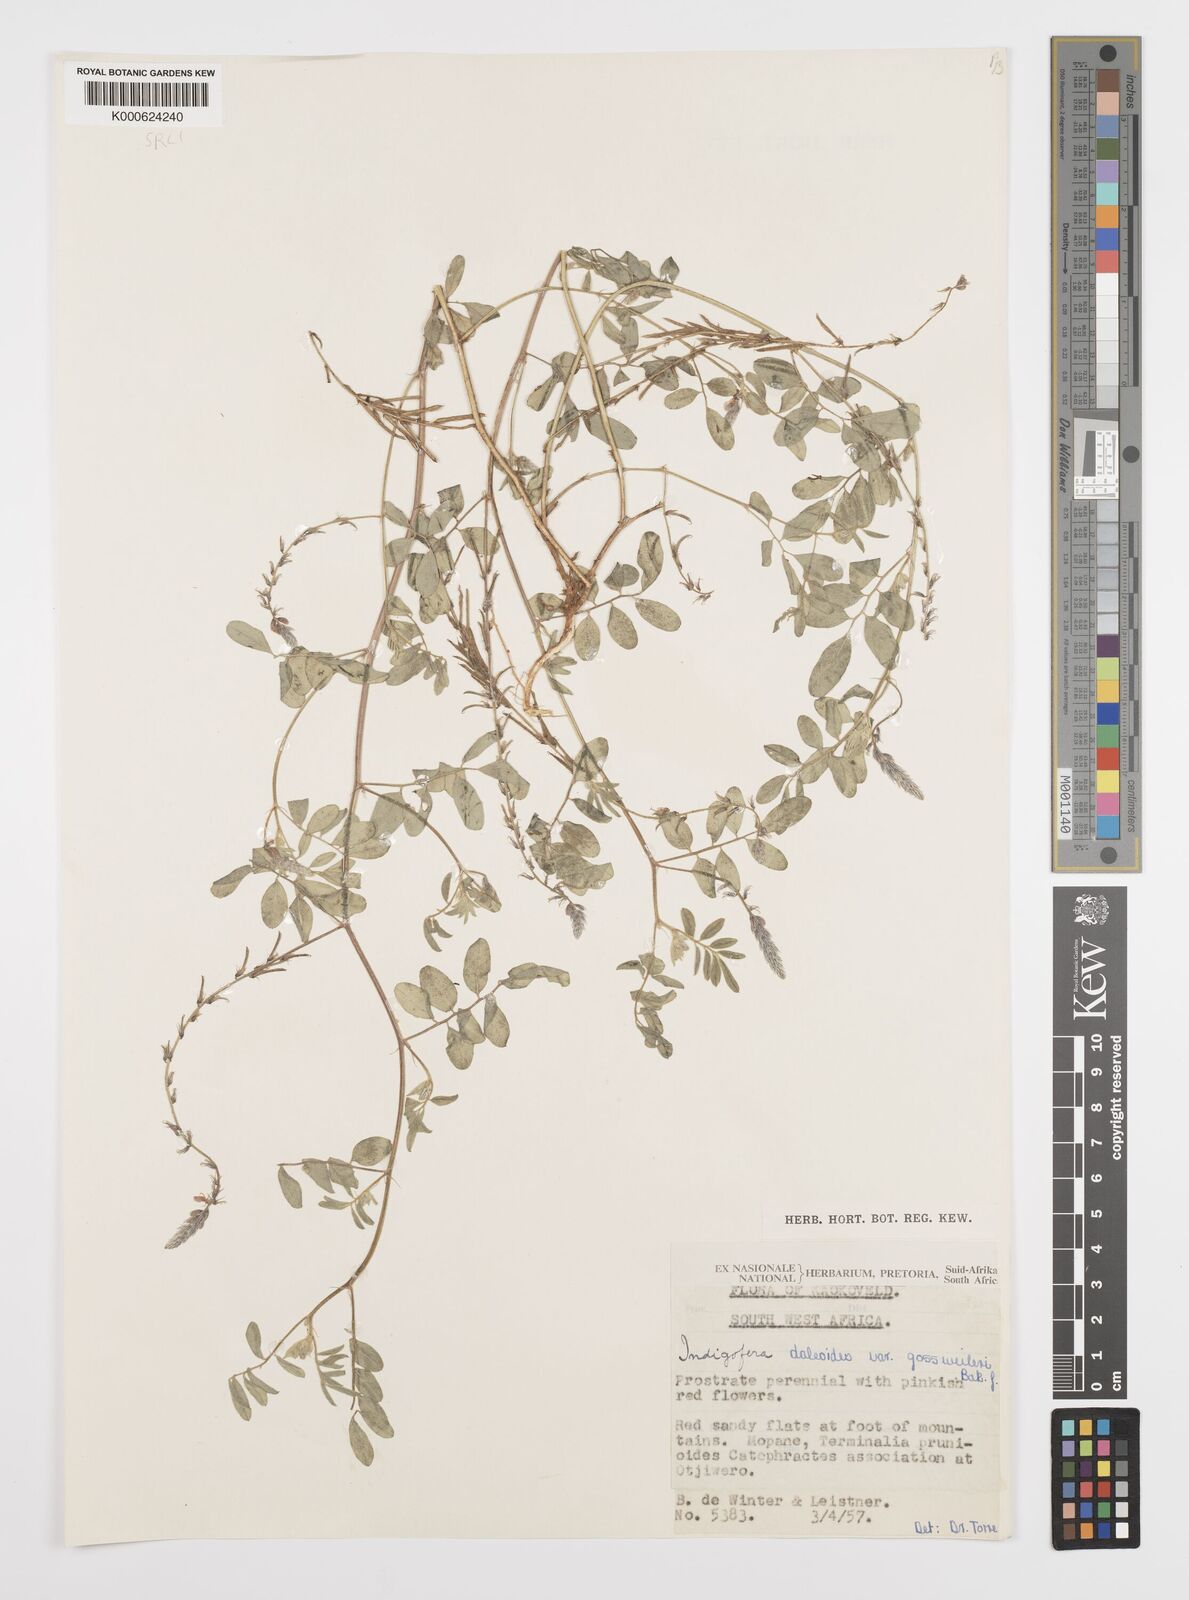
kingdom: Plantae
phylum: Tracheophyta
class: Magnoliopsida
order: Fabales
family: Fabaceae
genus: Indigofera
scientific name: Indigofera
